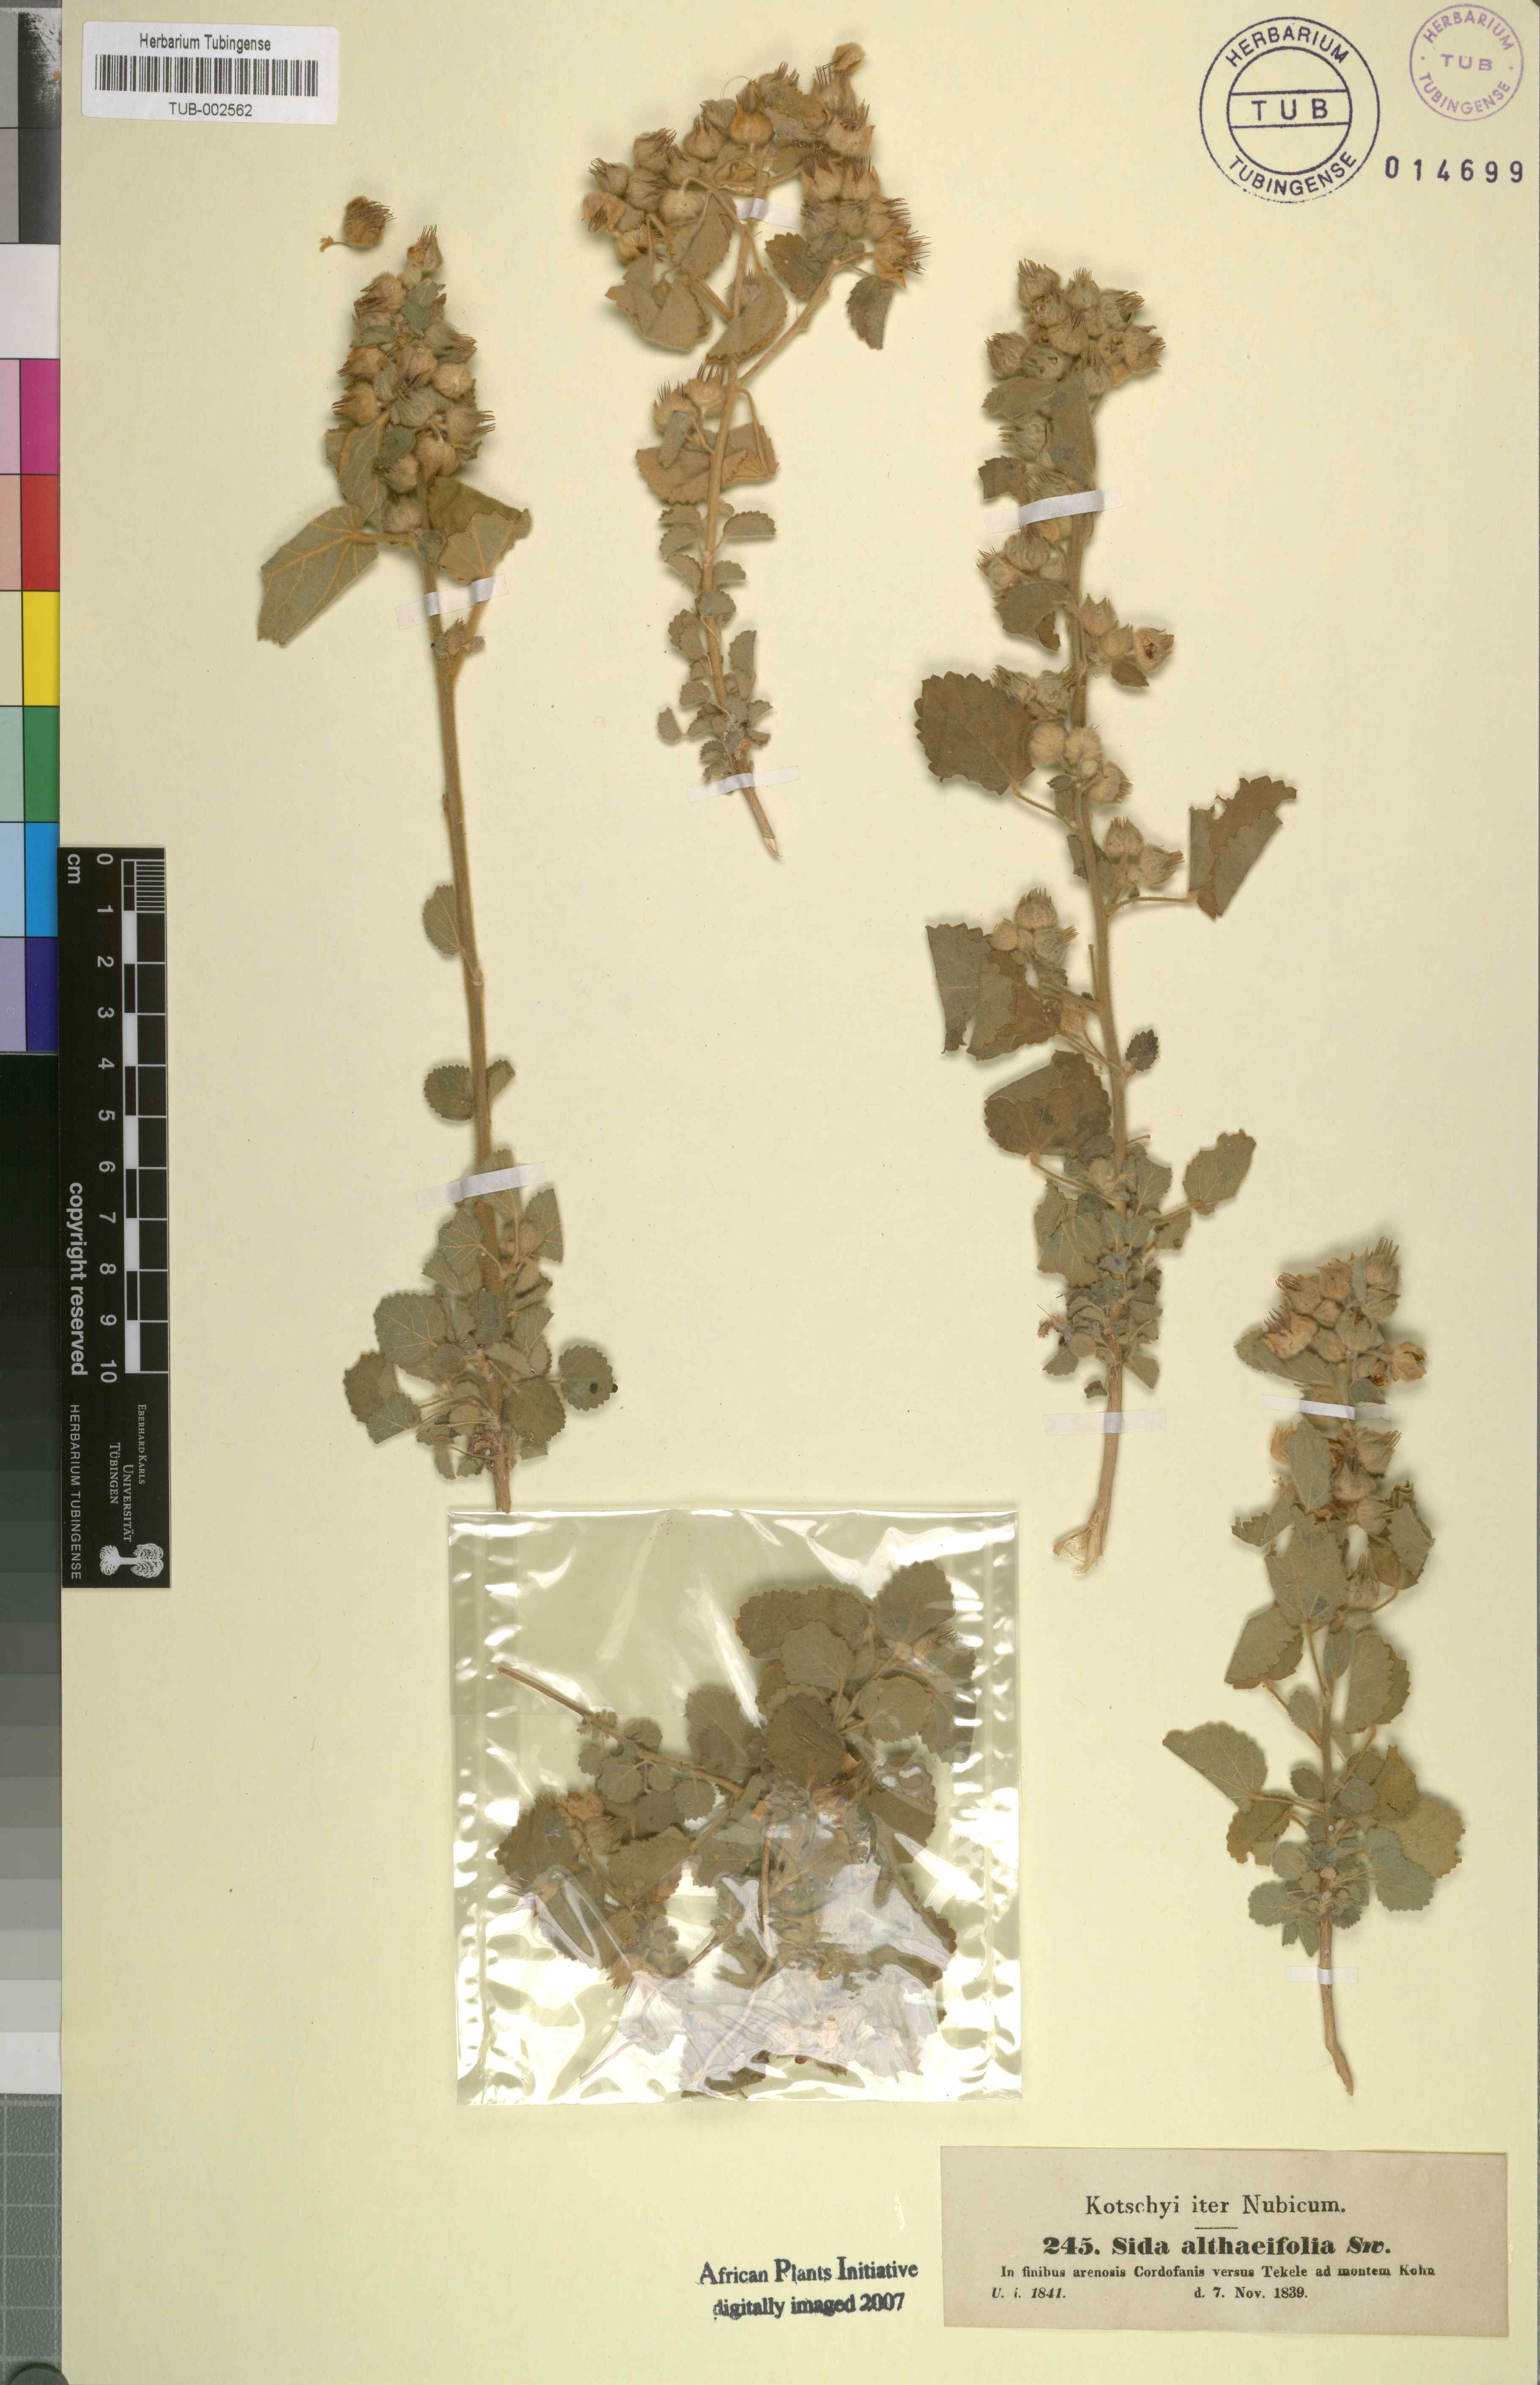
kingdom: Plantae
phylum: Tracheophyta
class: Magnoliopsida
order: Malvales
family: Malvaceae
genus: Sida
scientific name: Sida cordifolia
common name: Ilima
